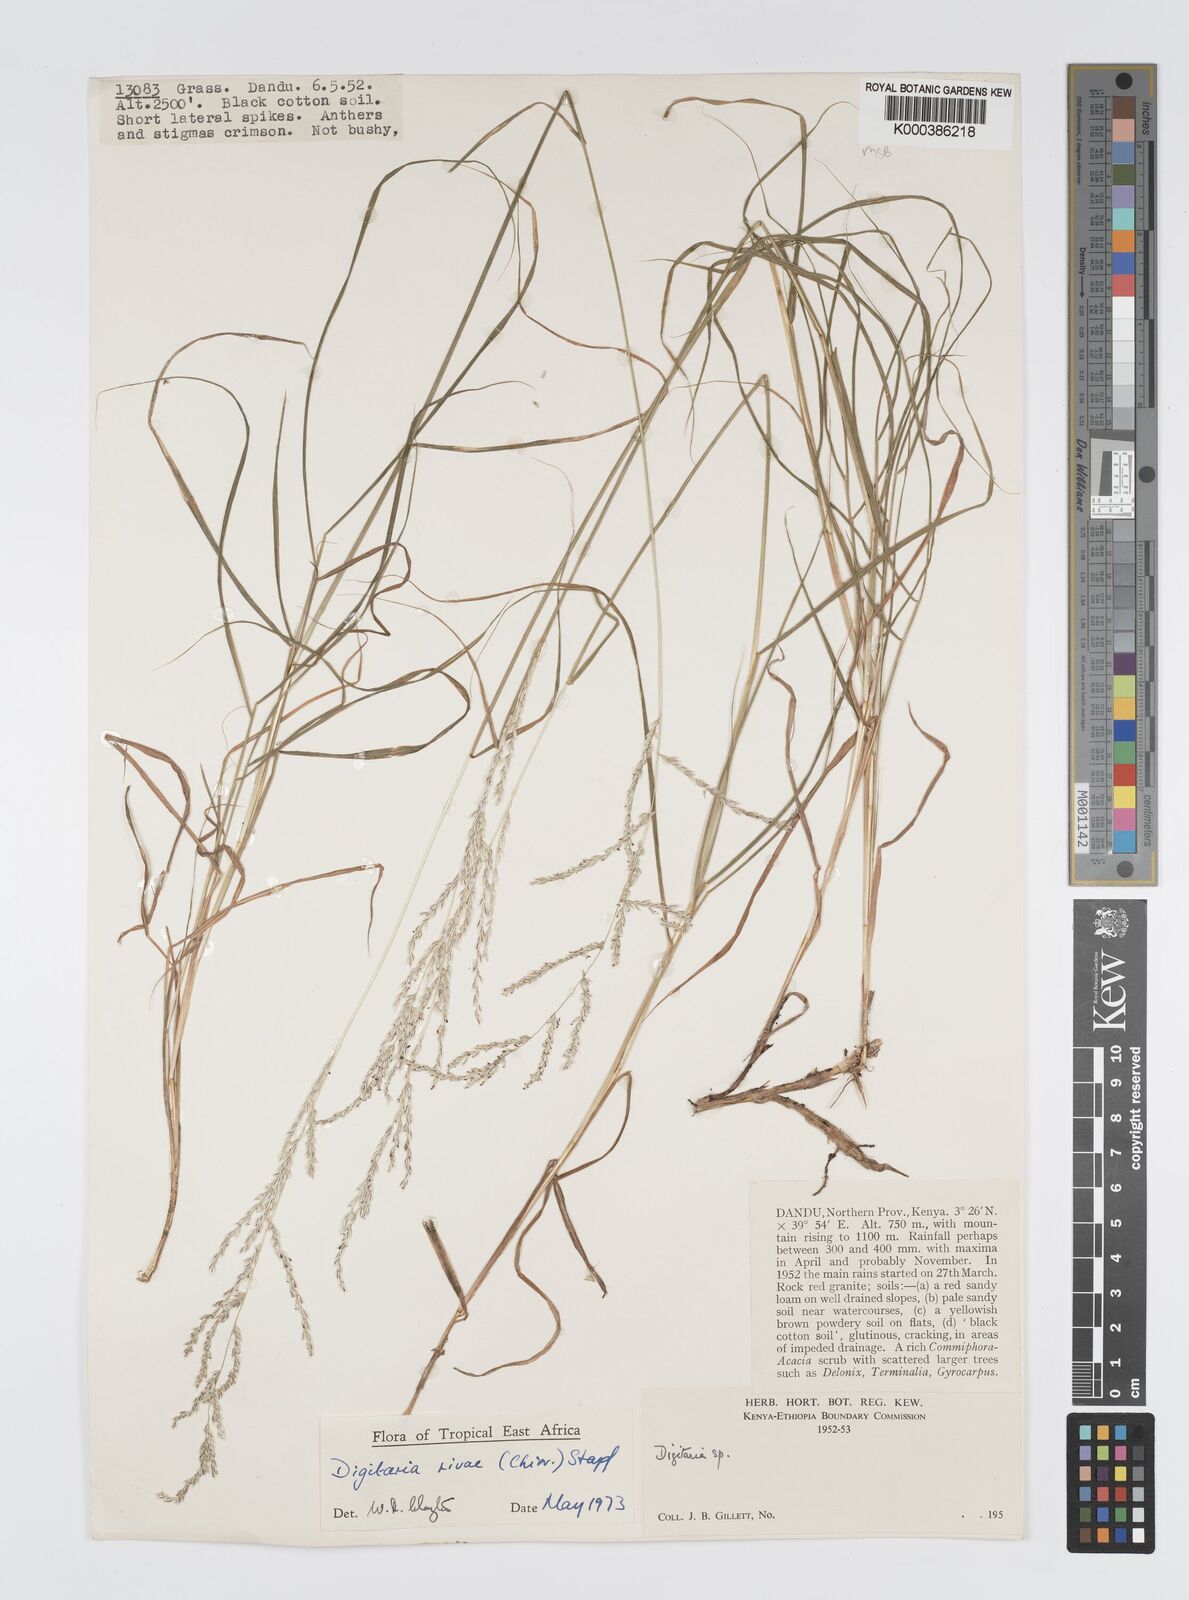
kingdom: Plantae
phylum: Tracheophyta
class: Liliopsida
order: Poales
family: Poaceae
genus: Digitaria
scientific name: Digitaria rivae
